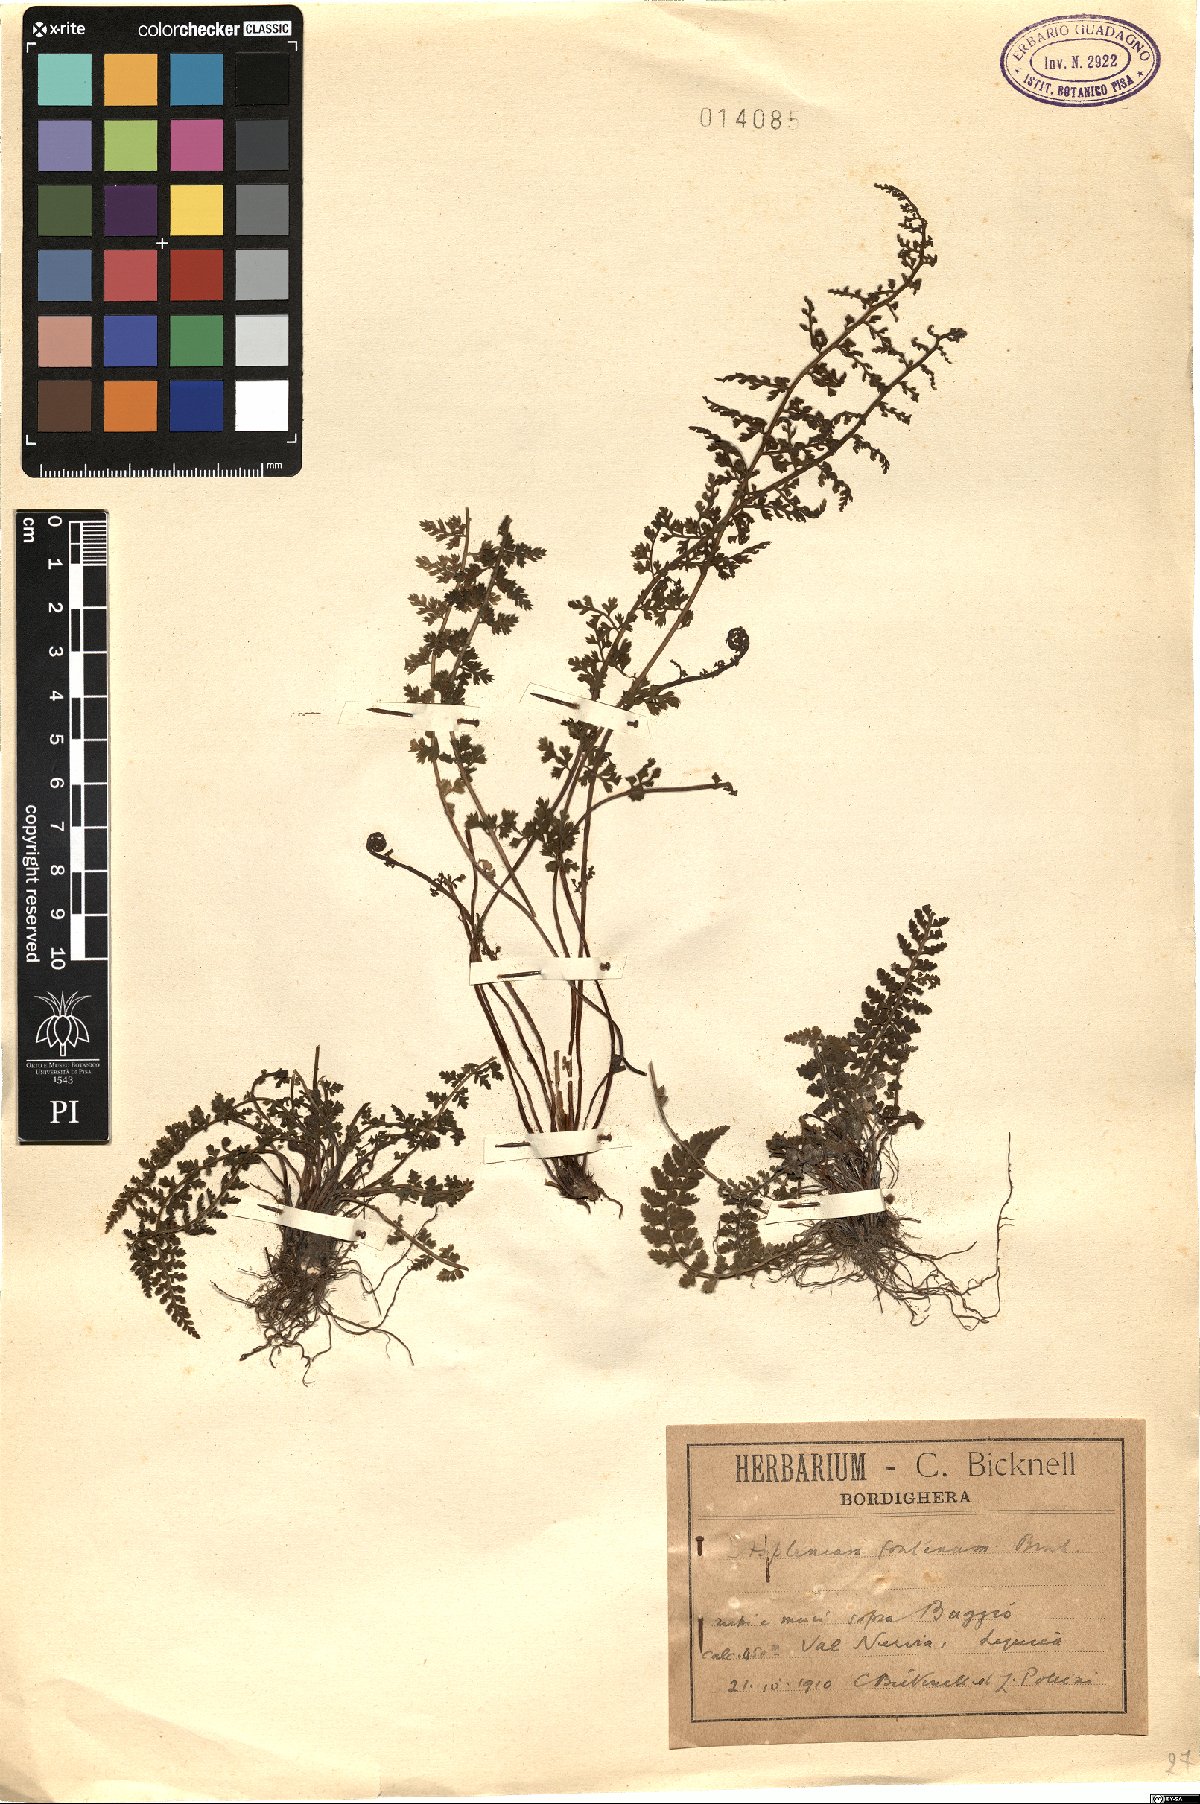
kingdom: Plantae
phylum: Tracheophyta
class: Polypodiopsida
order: Polypodiales
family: Aspleniaceae
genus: Asplenium
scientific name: Asplenium fontanum
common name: Fountain spleenwort
